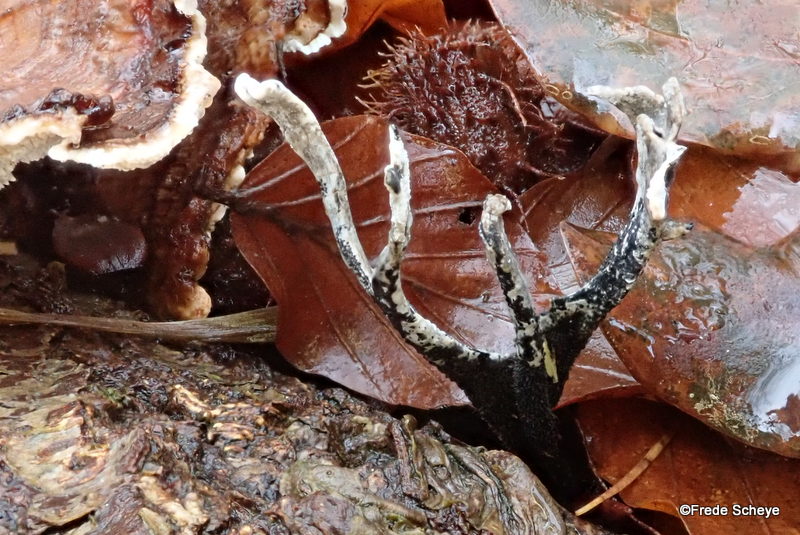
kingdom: Fungi
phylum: Ascomycota
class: Sordariomycetes
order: Xylariales
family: Xylariaceae
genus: Xylaria
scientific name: Xylaria hypoxylon
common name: grenet stødsvamp
